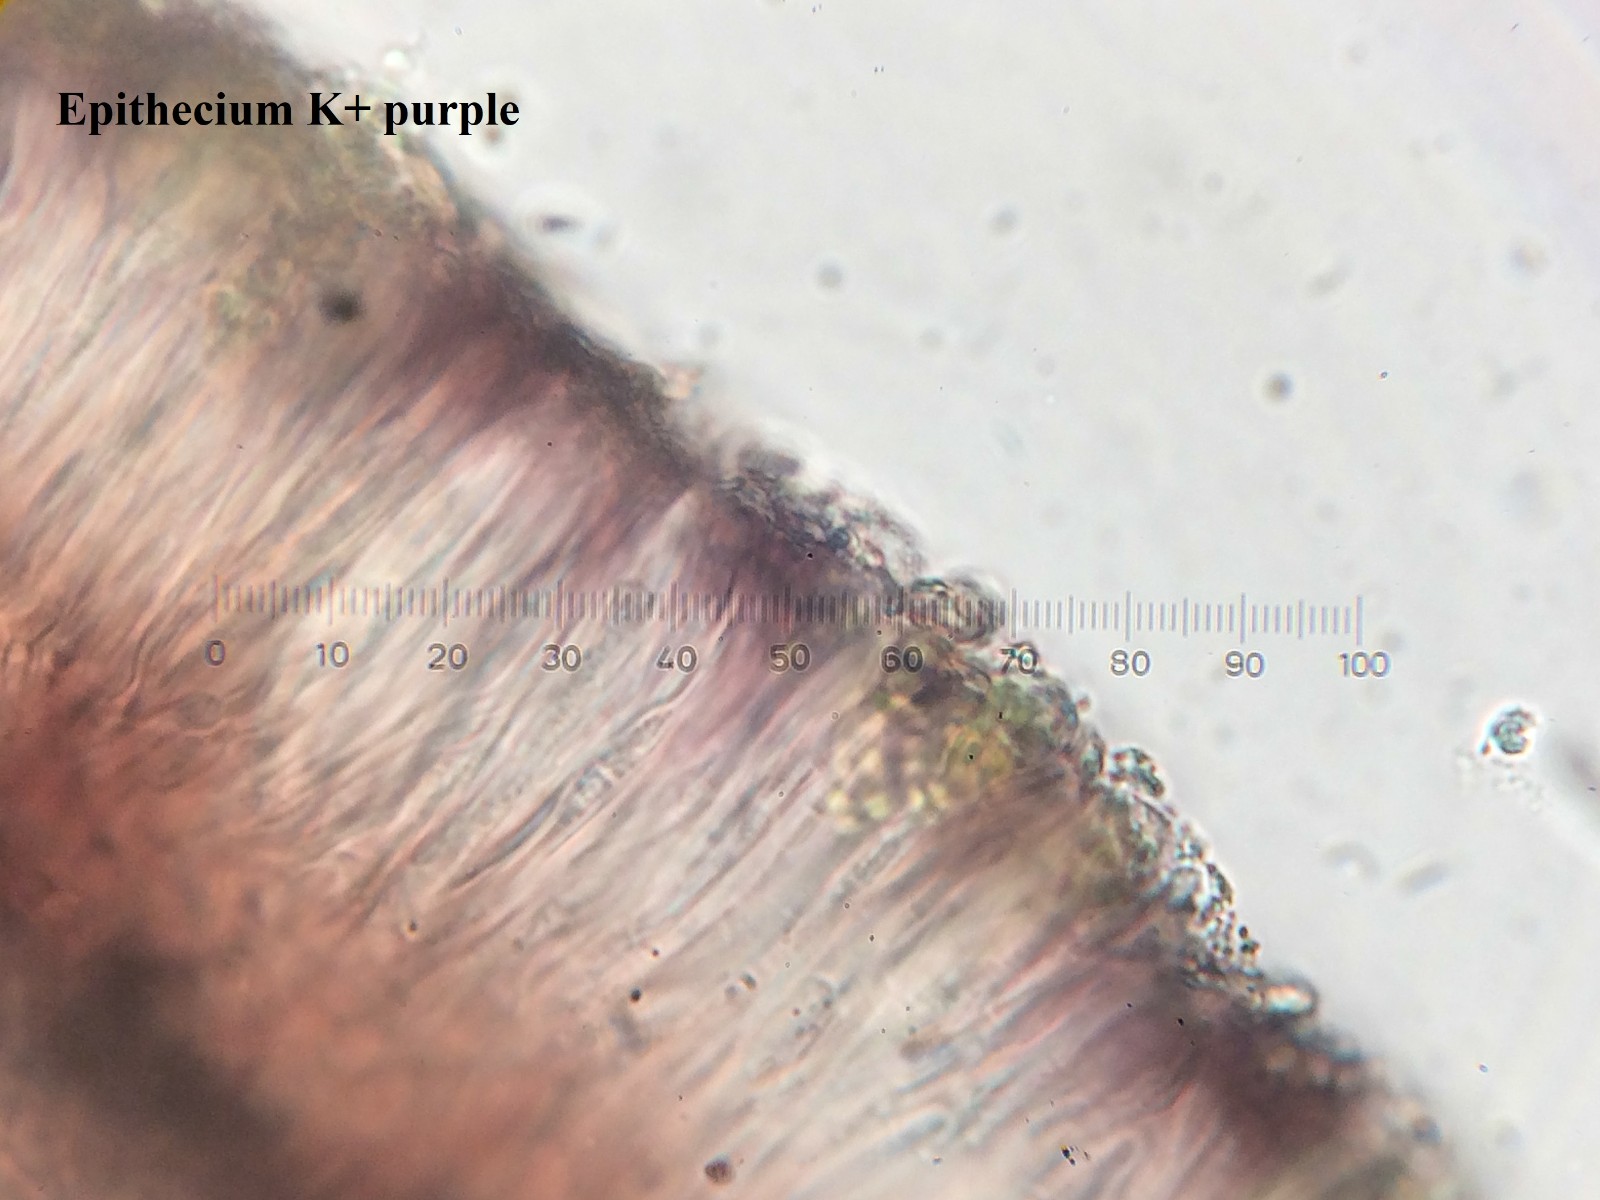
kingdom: Fungi
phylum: Ascomycota
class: Lecanoromycetes
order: Lecanorales
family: Ramalinaceae
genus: Thalloidima
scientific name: Thalloidima sedifolium
